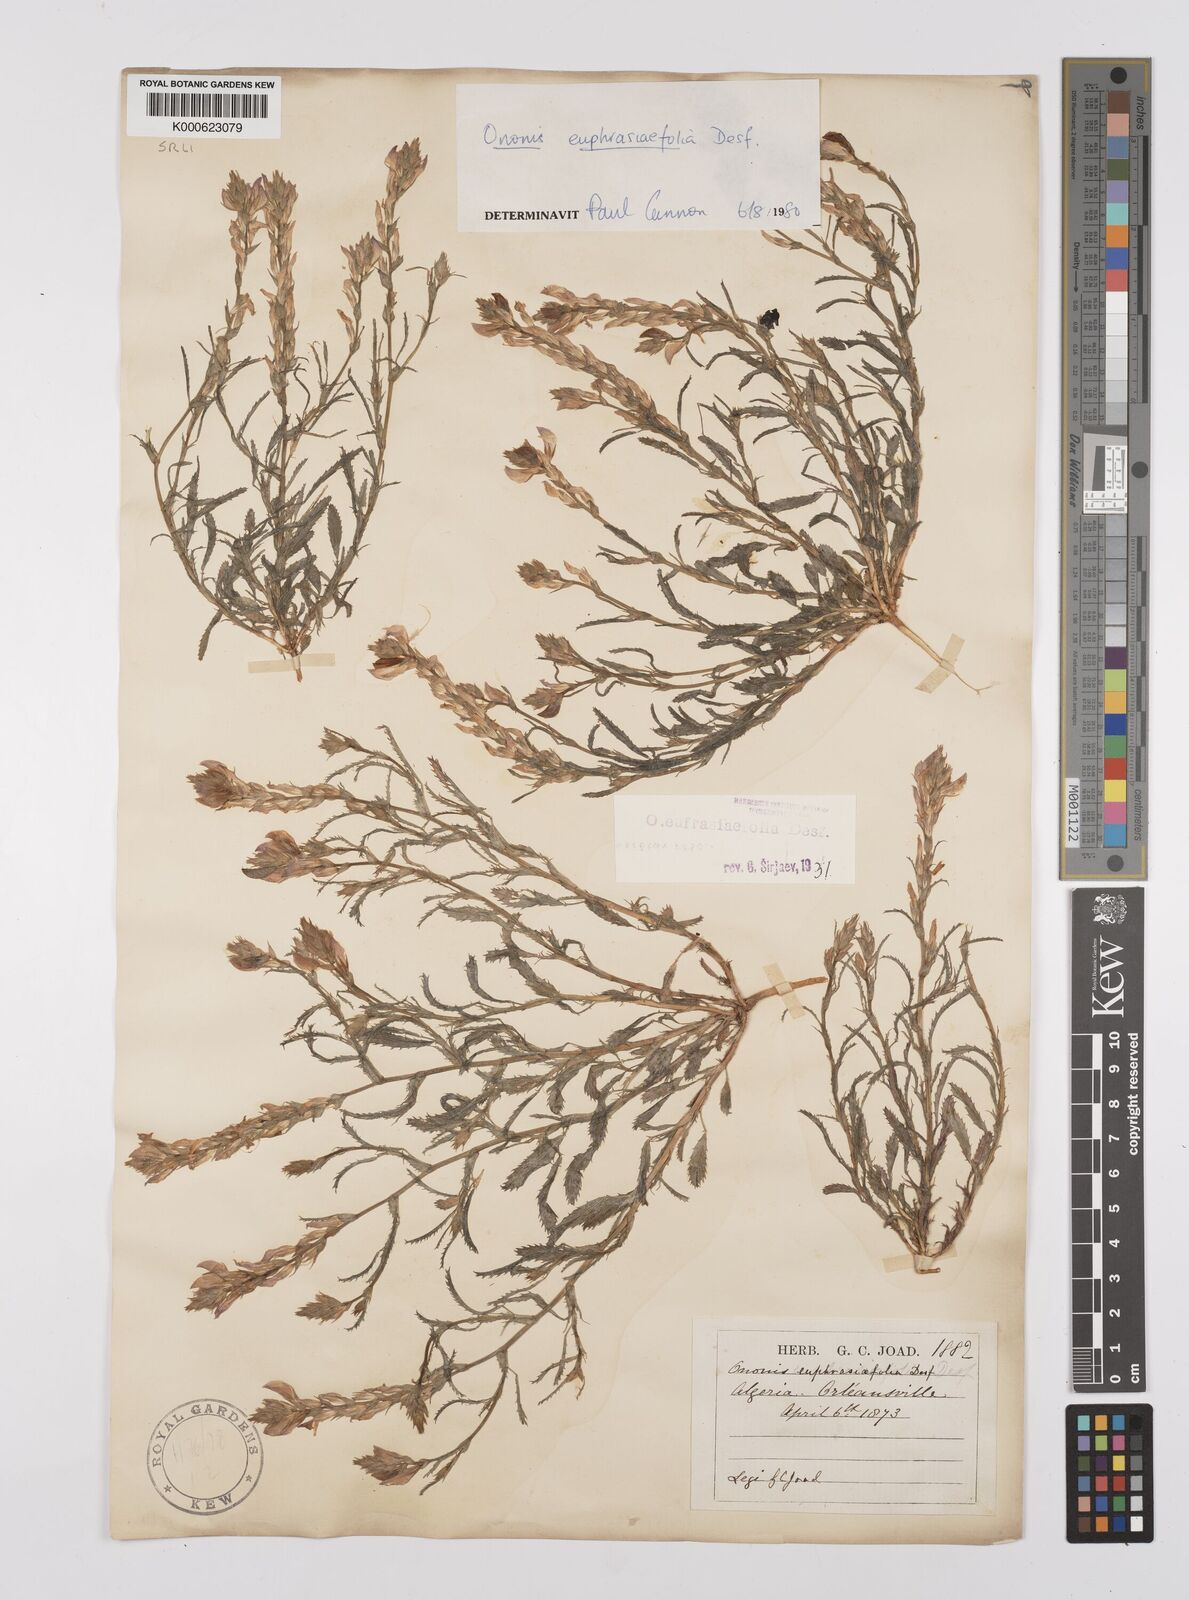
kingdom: Plantae
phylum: Tracheophyta
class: Magnoliopsida
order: Fabales
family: Fabaceae
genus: Ononis
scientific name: Ononis
